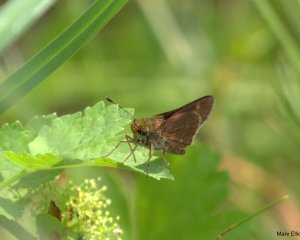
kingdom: Animalia
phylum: Arthropoda
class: Insecta
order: Lepidoptera
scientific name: Lepidoptera
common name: Butterflies
